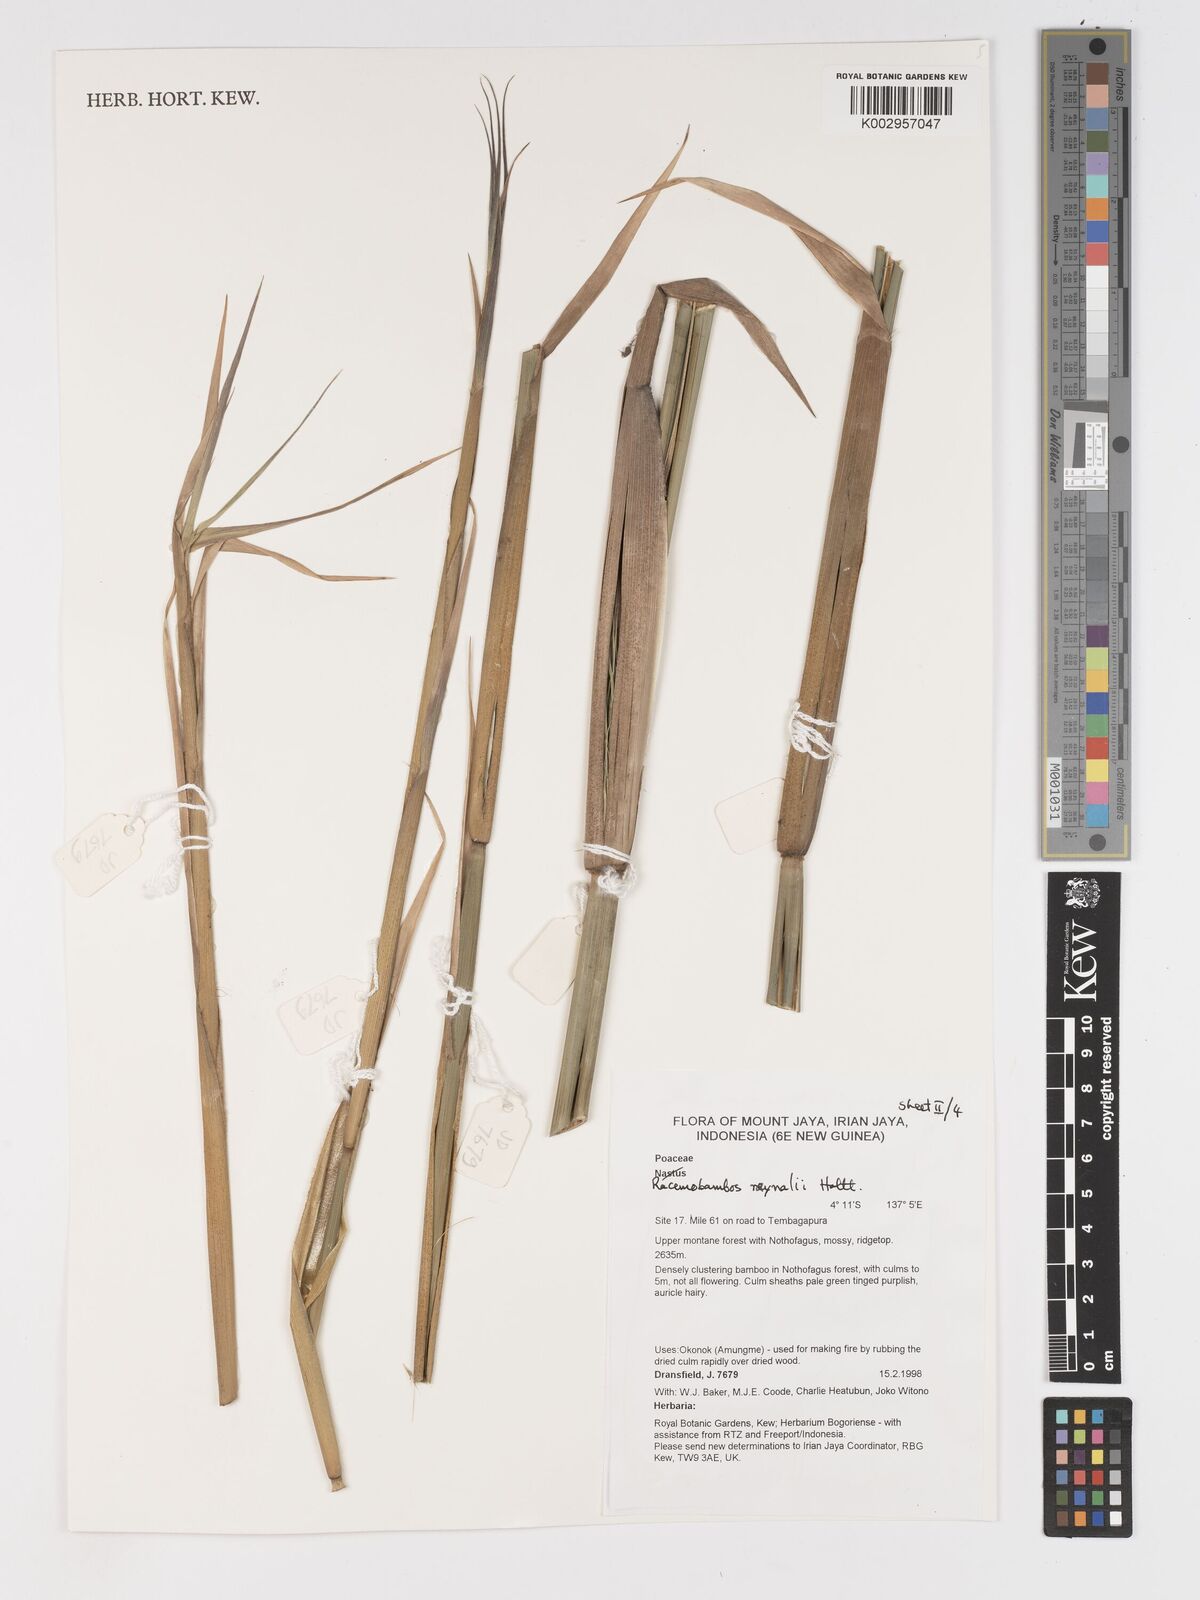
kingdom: Plantae
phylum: Tracheophyta
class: Liliopsida
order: Poales
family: Poaceae
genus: Racemobambos
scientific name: Racemobambos raynalii
